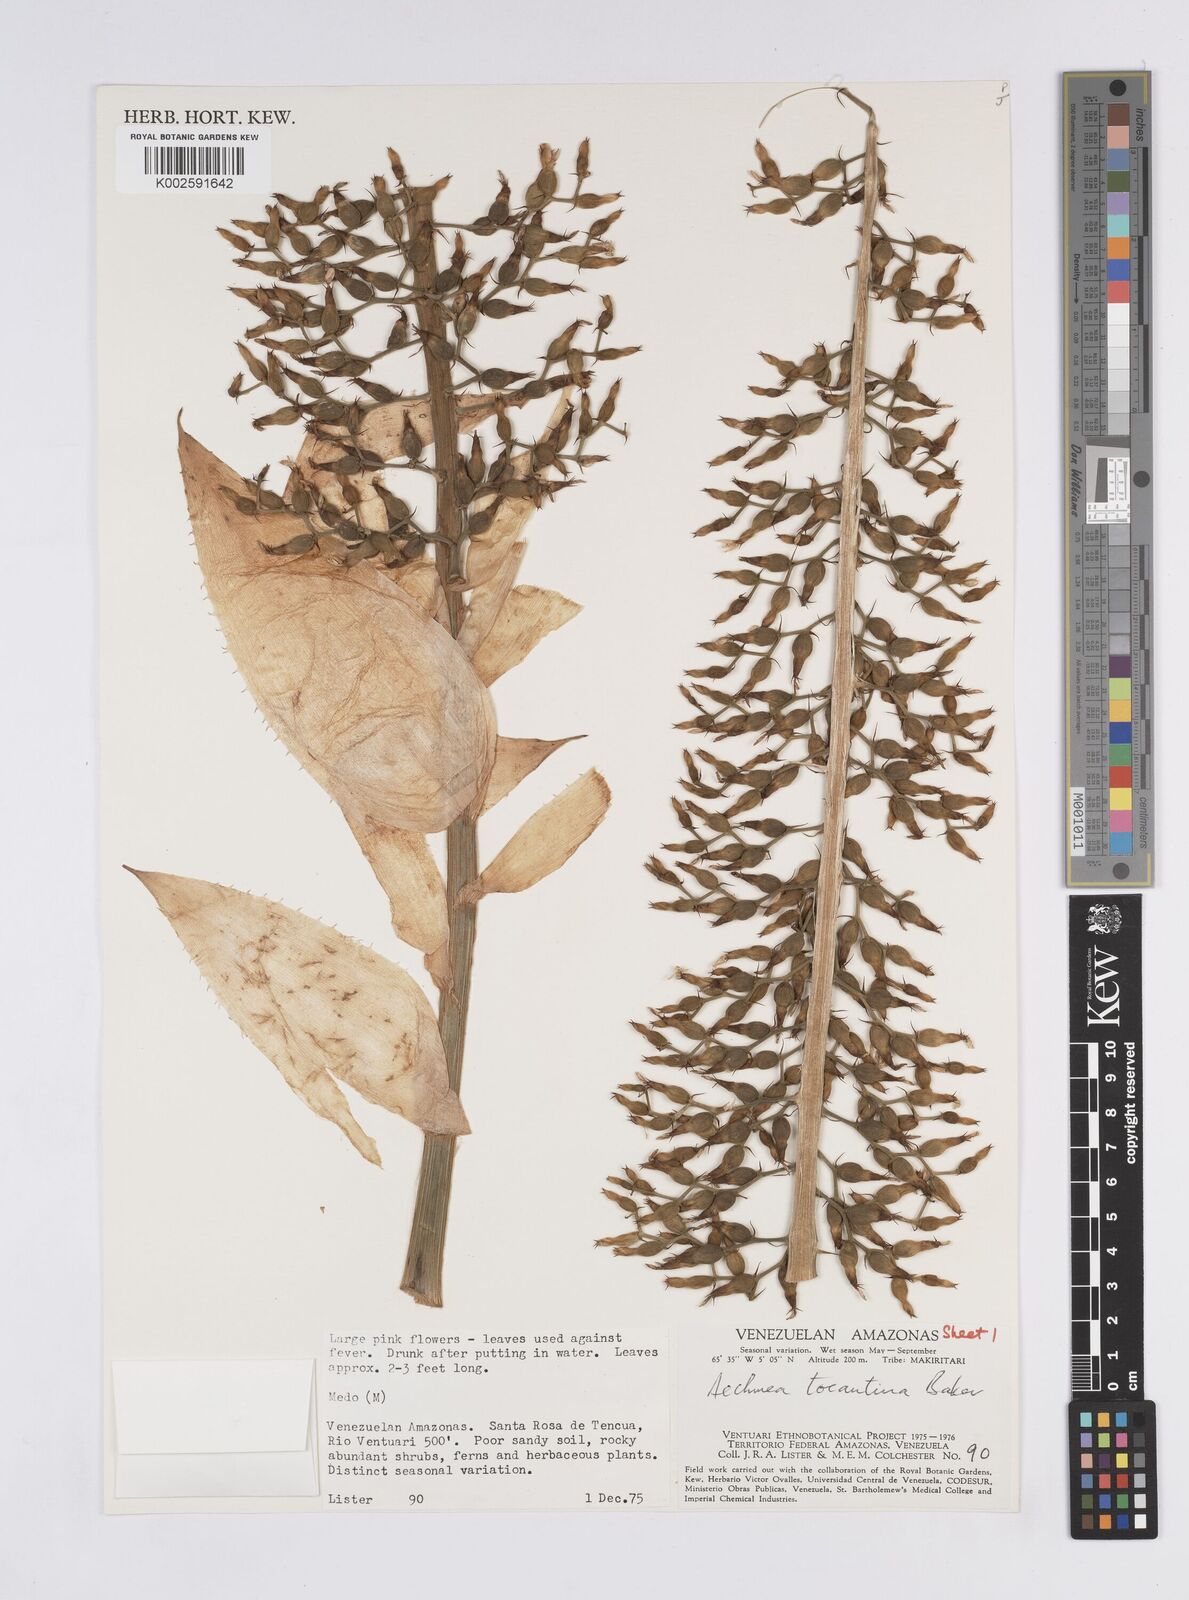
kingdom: Plantae
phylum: Tracheophyta
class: Liliopsida
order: Poales
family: Bromeliaceae
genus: Aechmea
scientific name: Aechmea tocantina
